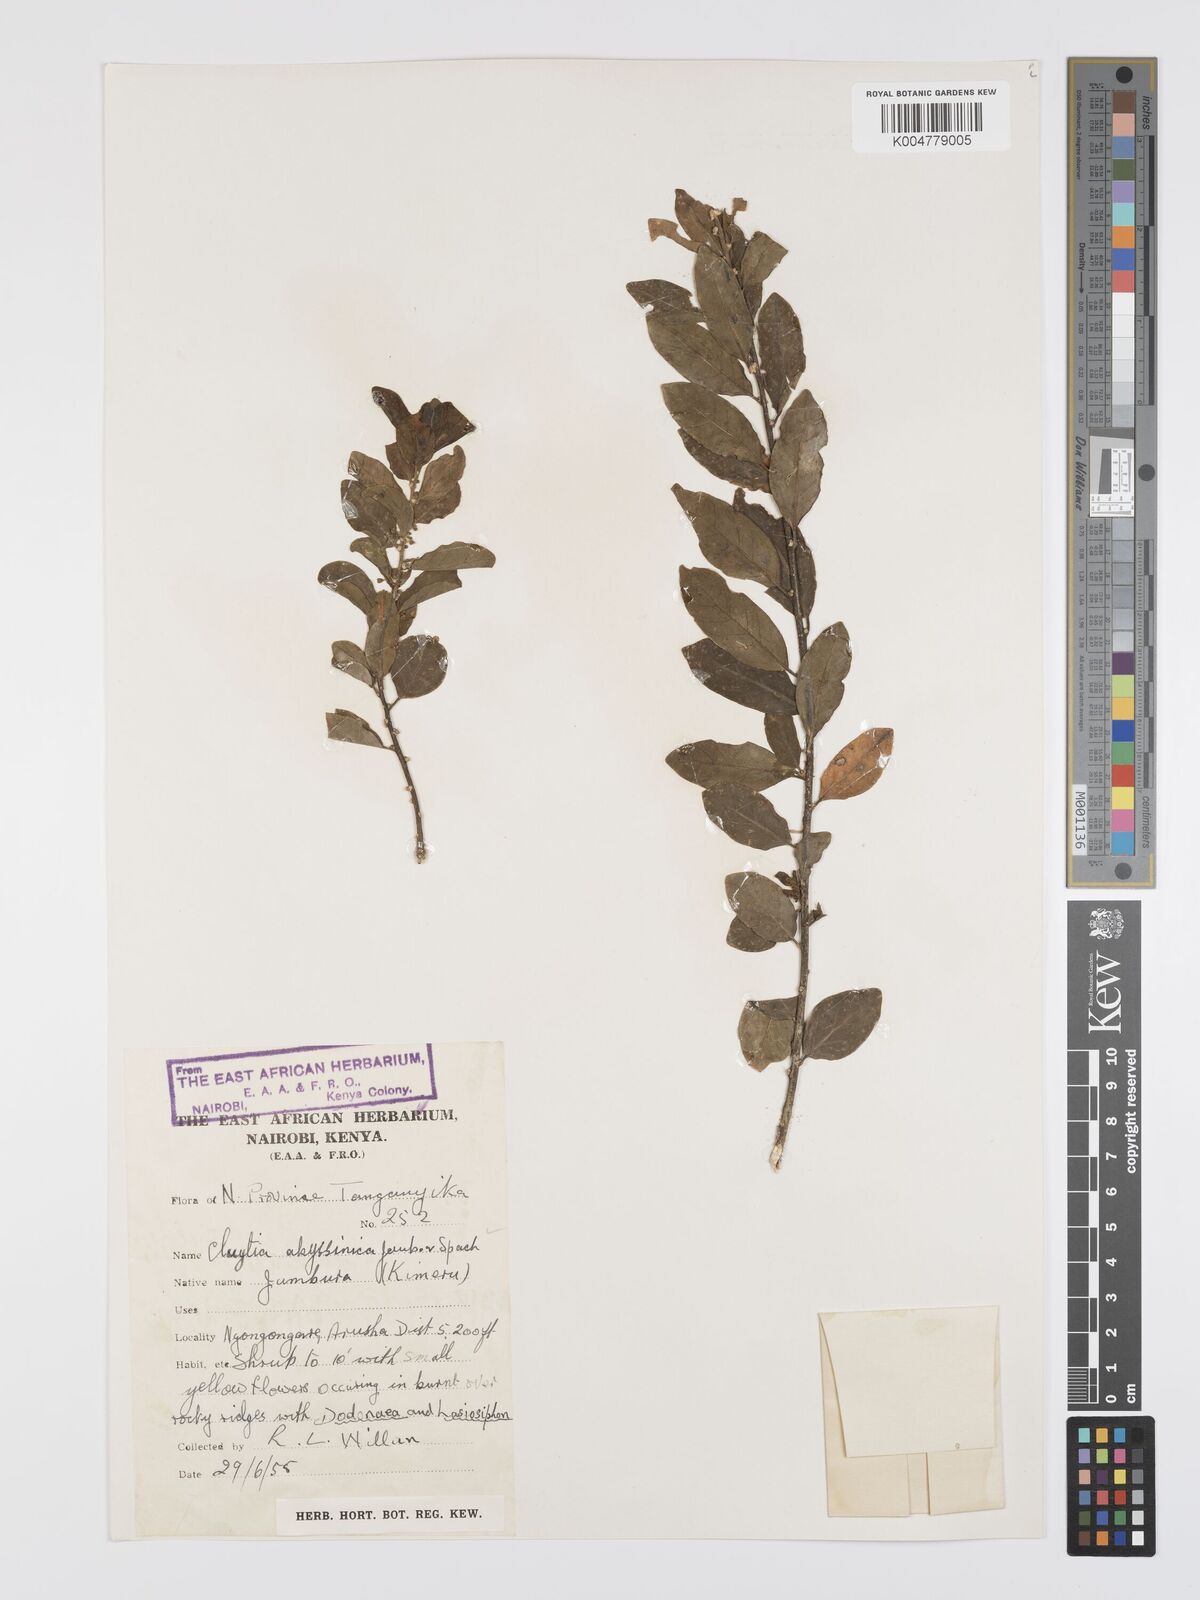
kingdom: Plantae
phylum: Tracheophyta
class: Magnoliopsida
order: Malpighiales
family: Peraceae
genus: Clutia
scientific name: Clutia abyssinica
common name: Large lightning bush
